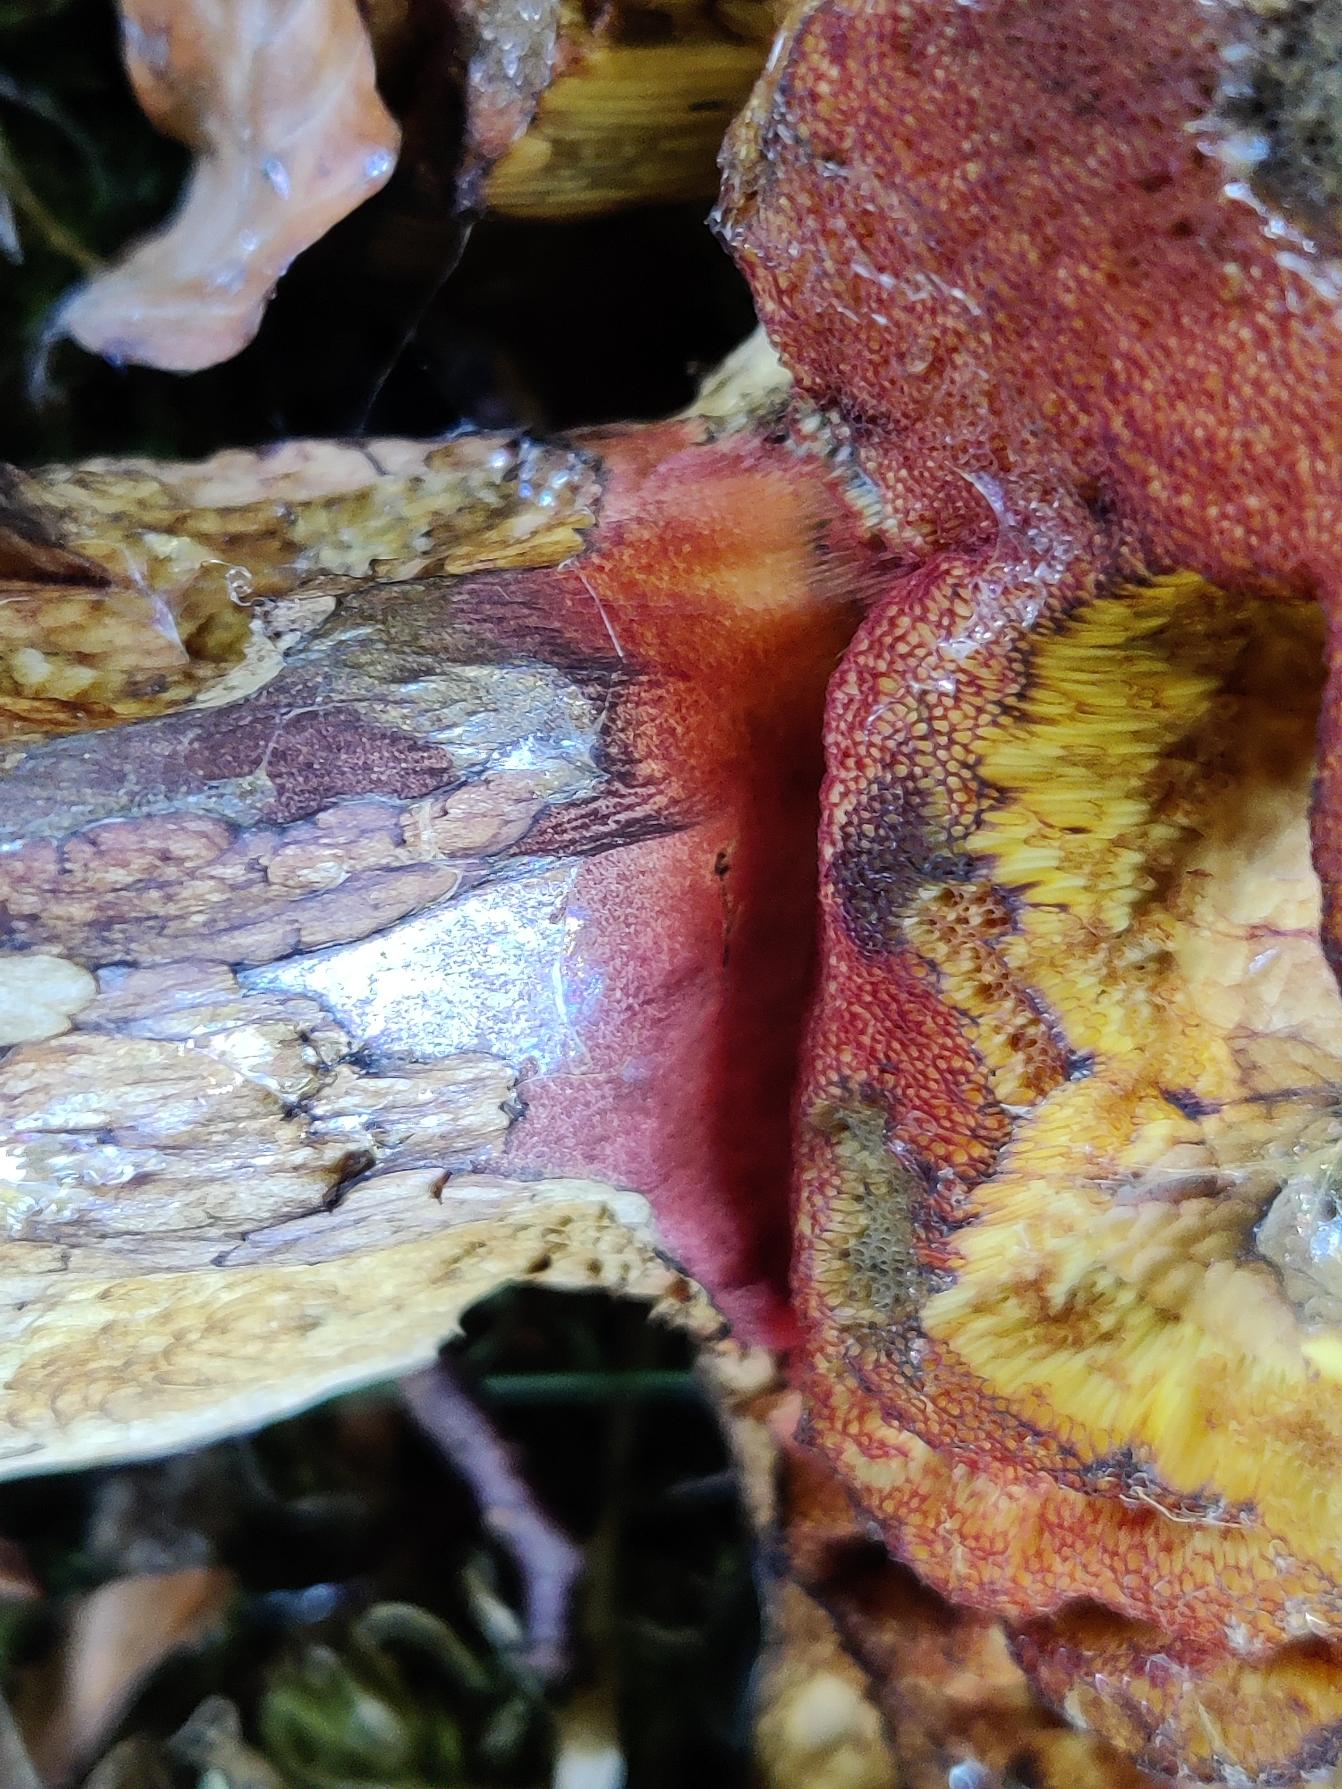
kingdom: Fungi
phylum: Basidiomycota
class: Agaricomycetes
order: Boletales
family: Boletaceae
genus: Neoboletus
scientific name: Neoboletus luridiformis
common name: Punktstokket indigorørhat
